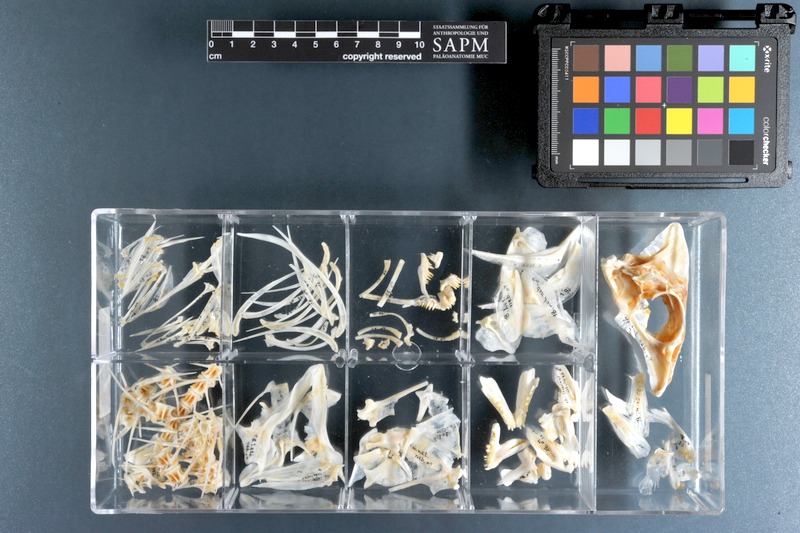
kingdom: Animalia
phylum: Chordata
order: Perciformes
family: Lethrinidae
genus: Lethrinus
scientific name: Lethrinus nebulosus
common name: Spangled emperor
